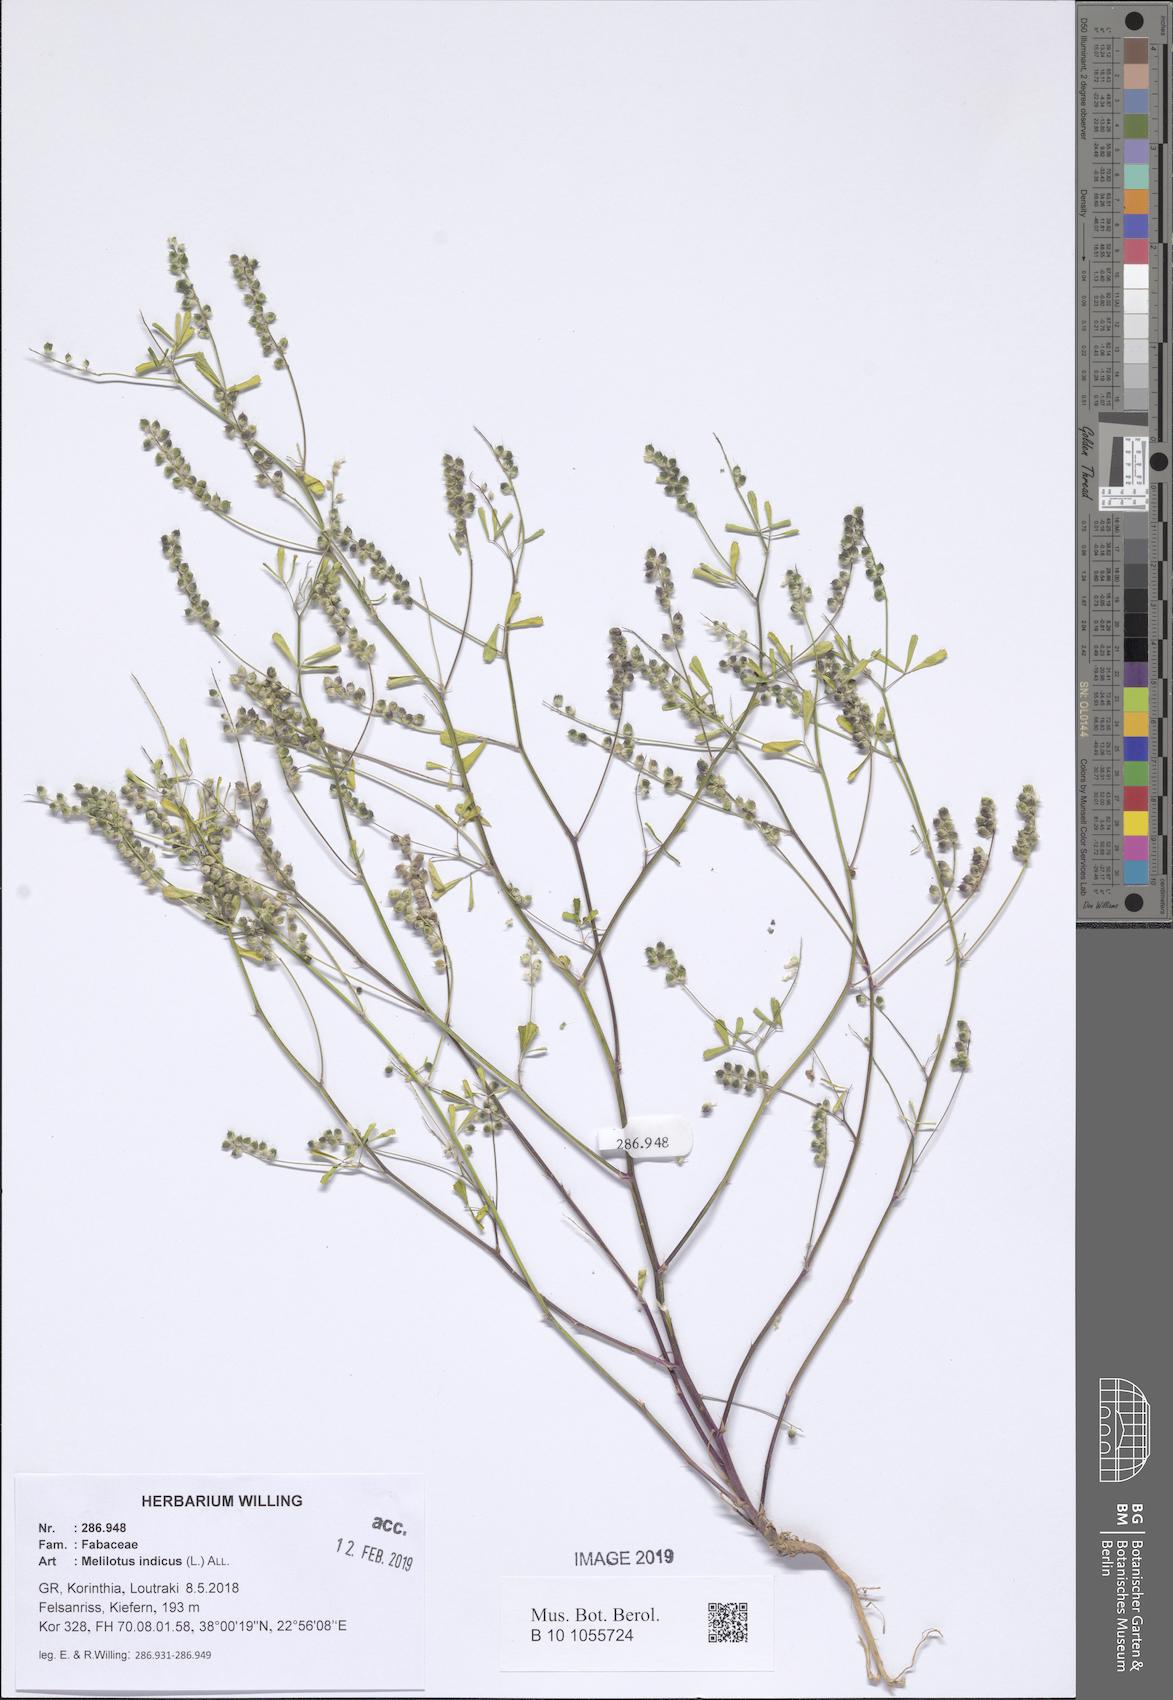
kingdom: Plantae
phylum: Tracheophyta
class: Magnoliopsida
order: Fabales
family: Fabaceae
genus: Melilotus
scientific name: Melilotus indicus
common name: Small melilot
